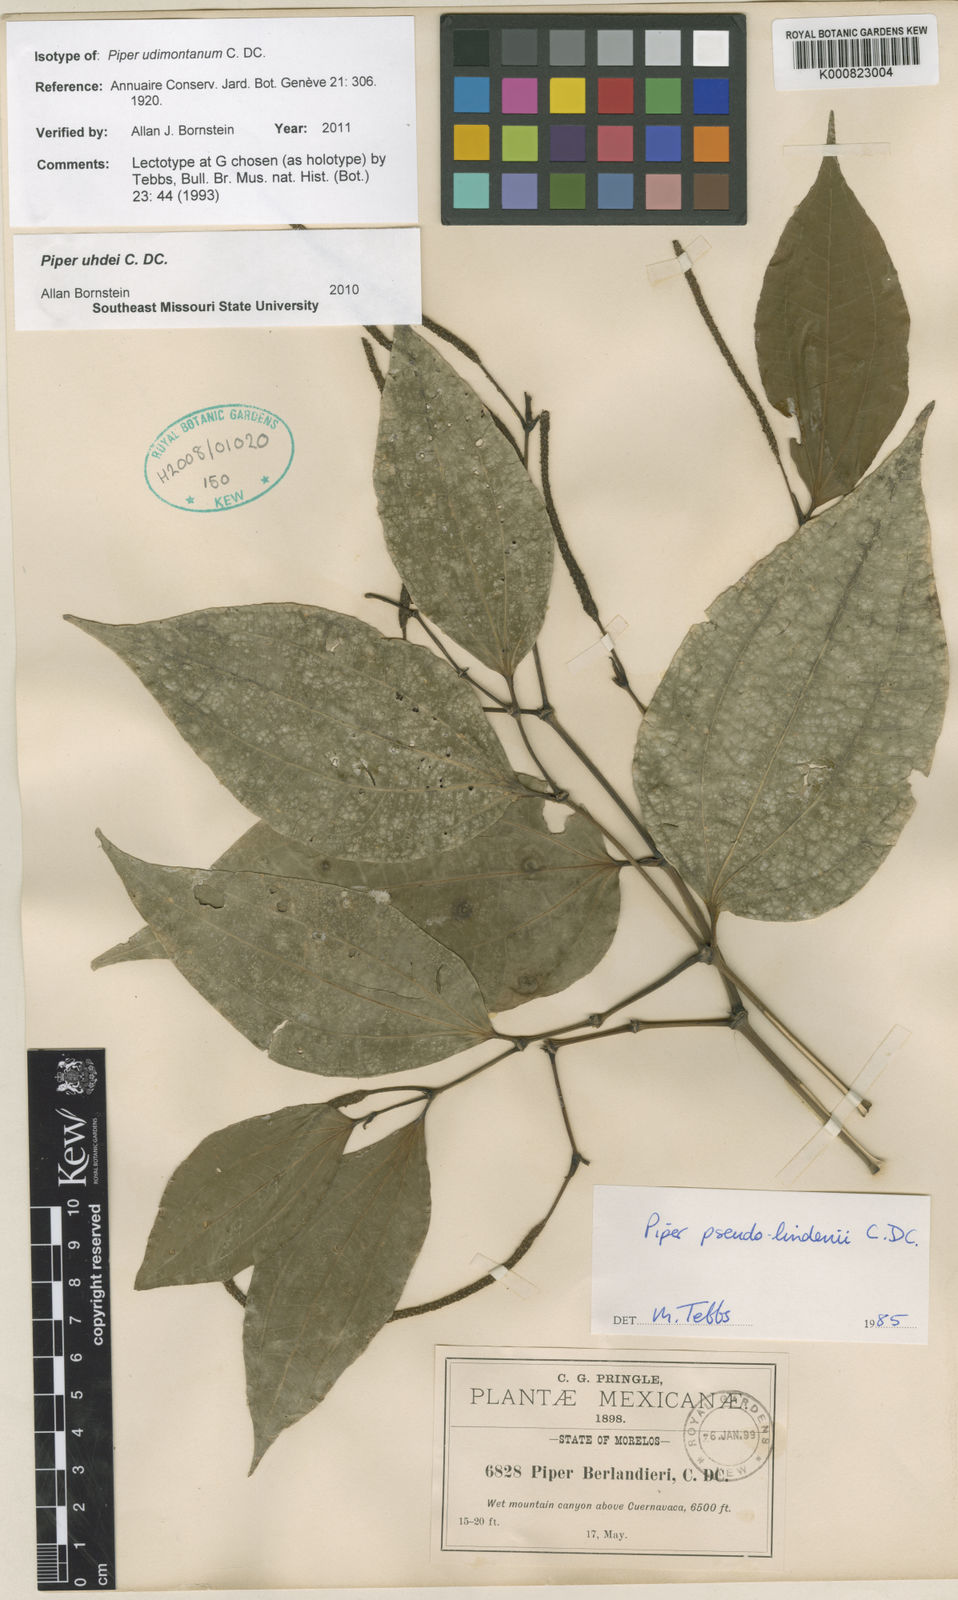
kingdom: Plantae
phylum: Tracheophyta
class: Magnoliopsida
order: Piperales
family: Piperaceae
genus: Piper
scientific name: Piper uhdei
